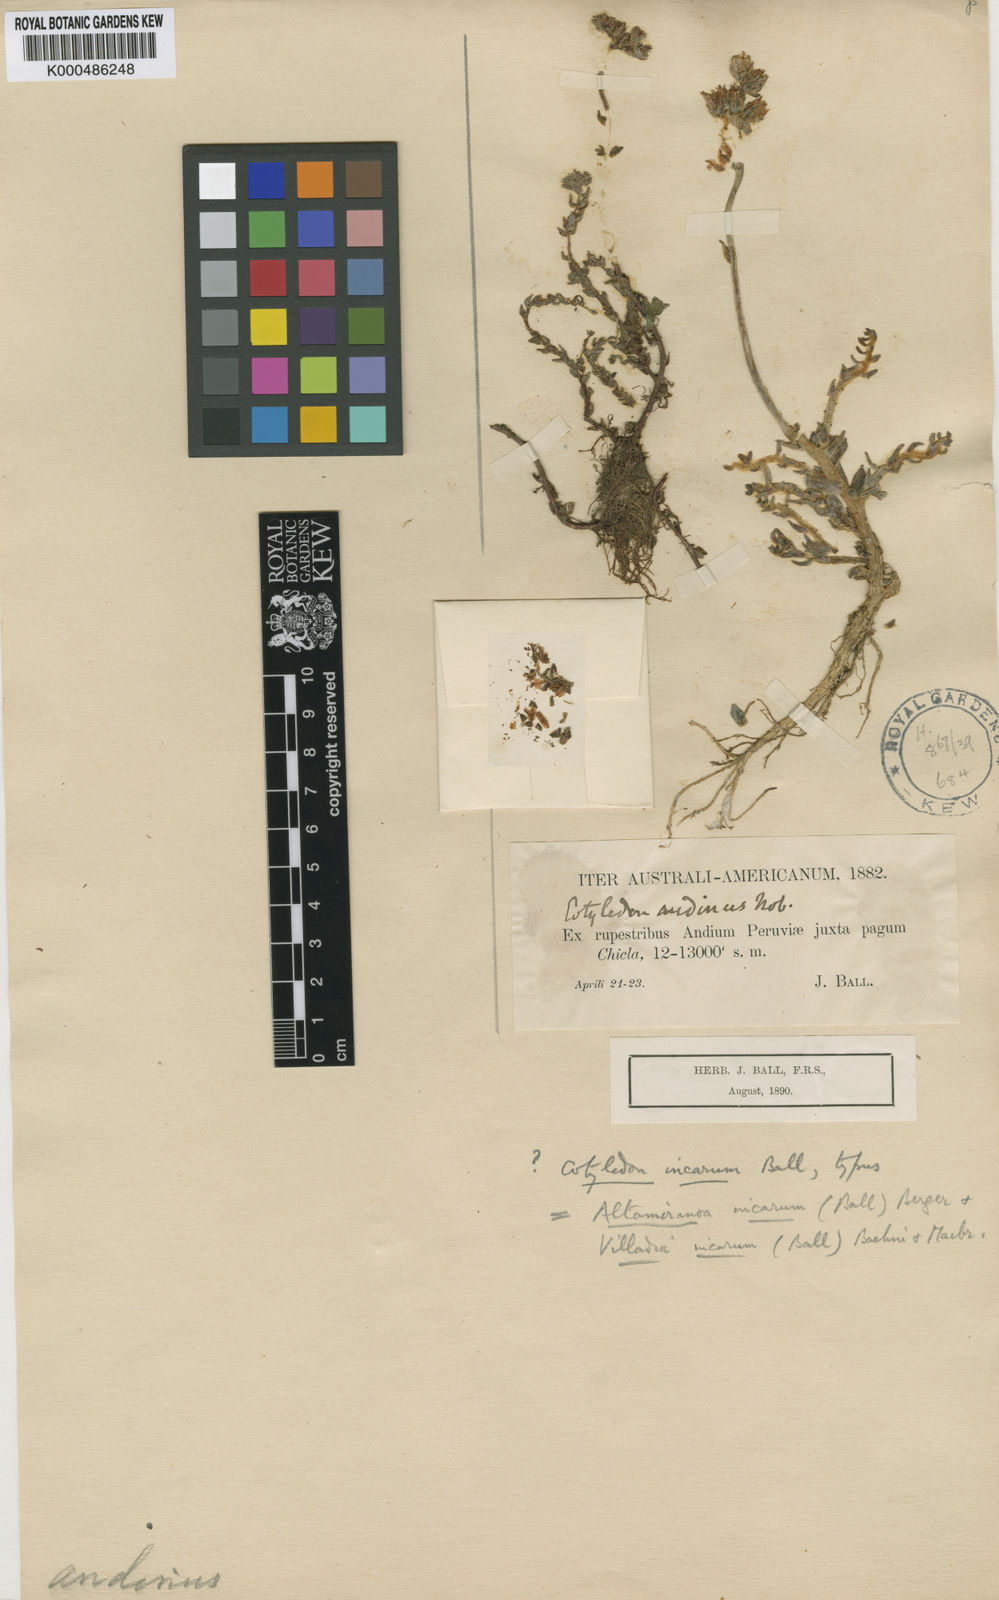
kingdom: Plantae
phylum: Tracheophyta
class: Magnoliopsida
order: Saxifragales
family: Crassulaceae
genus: Sedum
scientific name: Sedum incarum
